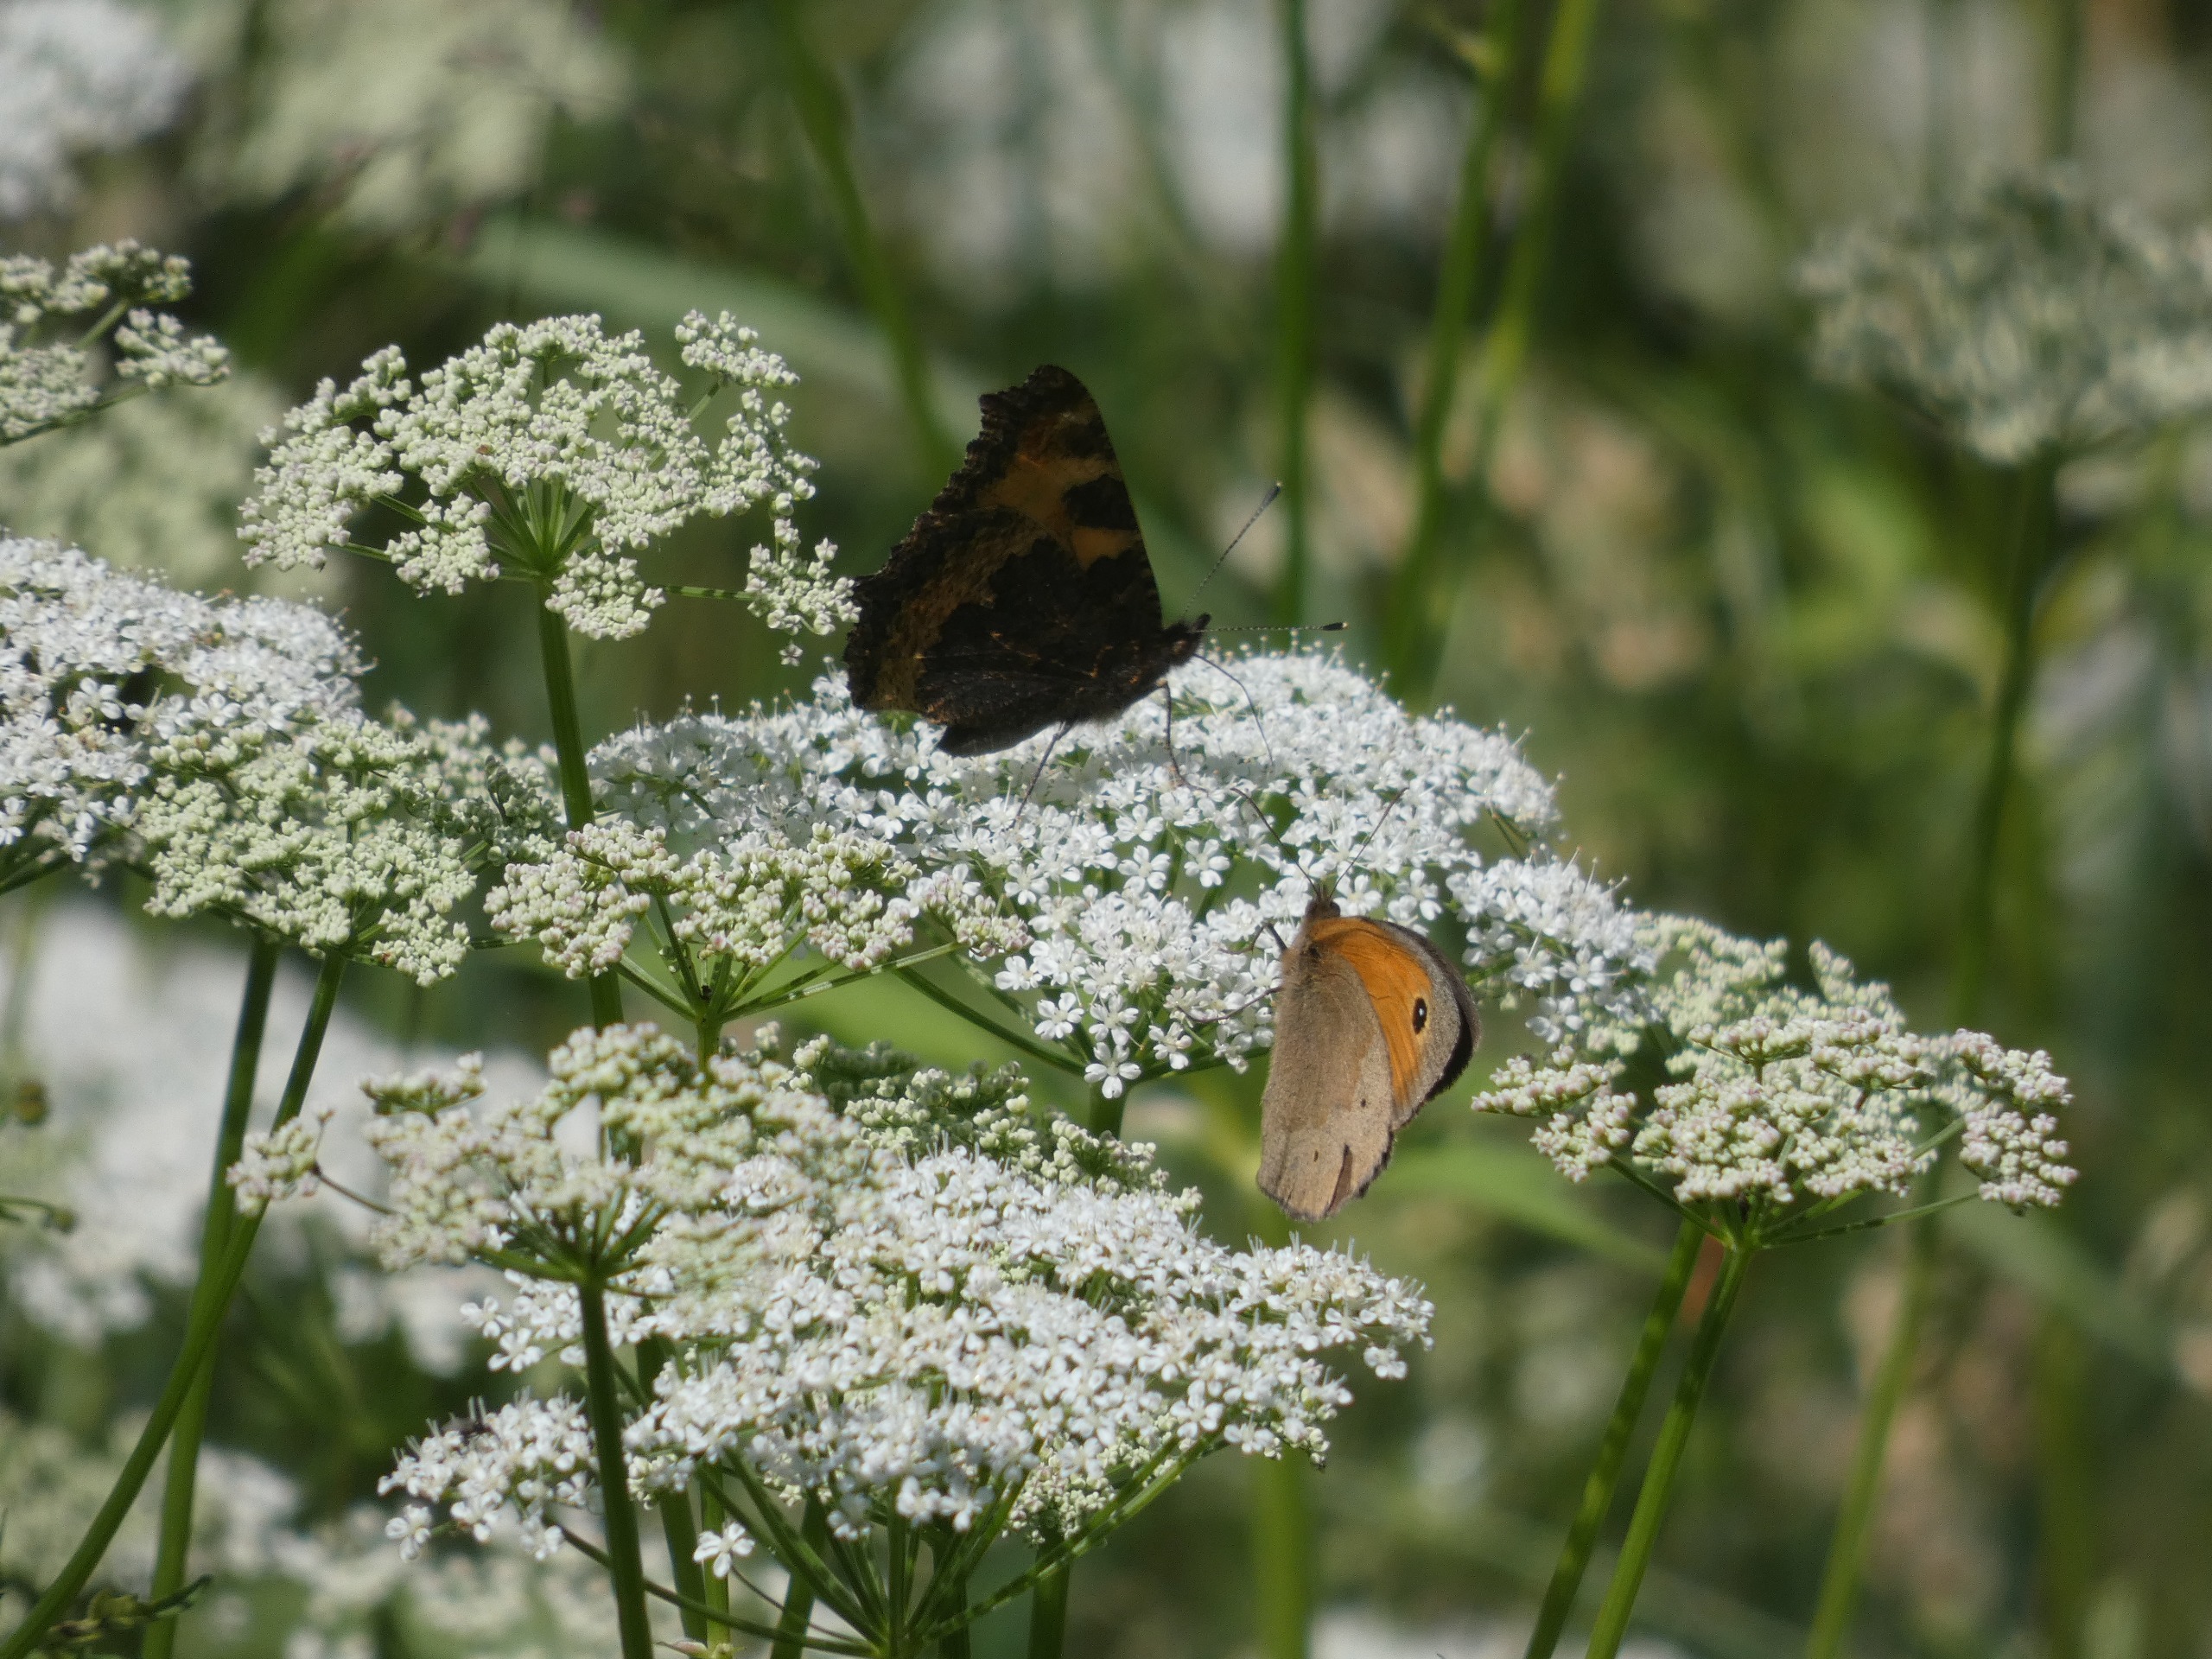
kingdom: Animalia
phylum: Arthropoda
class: Insecta
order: Lepidoptera
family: Nymphalidae
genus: Maniola
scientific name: Maniola jurtina
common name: Græsrandøje
